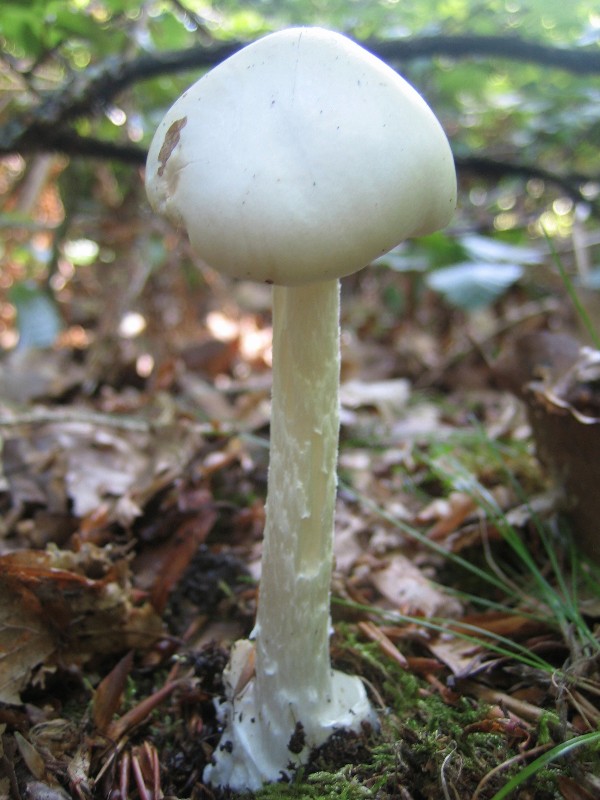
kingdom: Fungi
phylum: Basidiomycota
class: Agaricomycetes
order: Agaricales
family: Amanitaceae
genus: Amanita
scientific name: Amanita virosa
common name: snehvid fluesvamp
